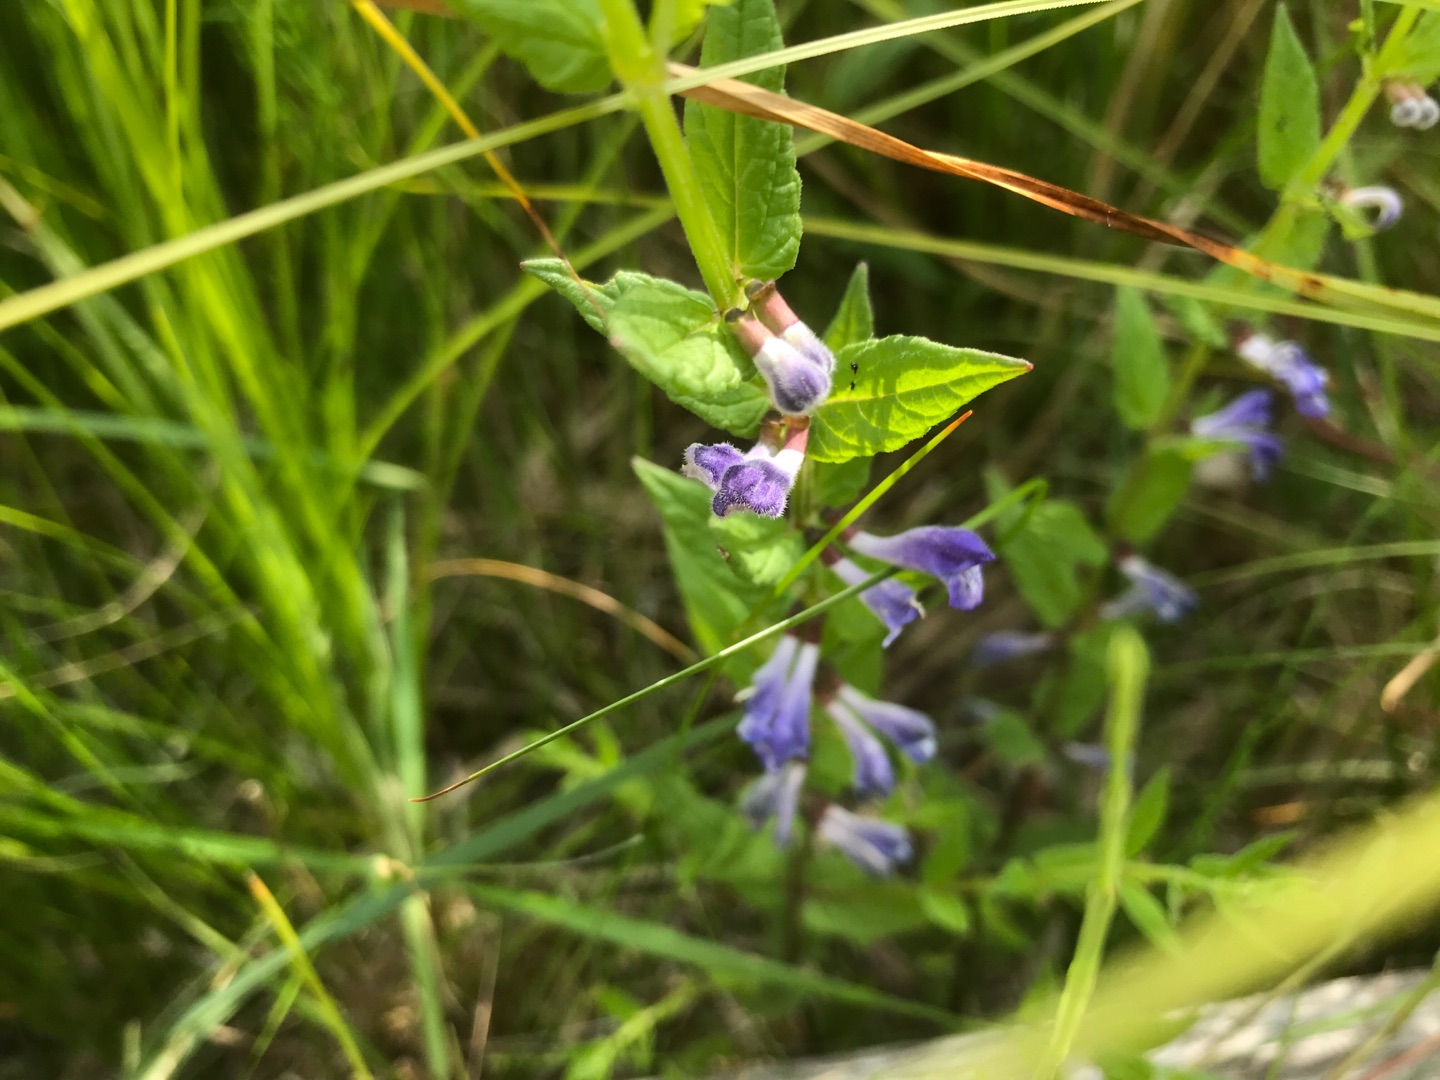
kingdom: Plantae
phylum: Tracheophyta
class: Magnoliopsida
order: Lamiales
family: Lamiaceae
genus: Scutellaria
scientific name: Scutellaria galericulata
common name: Almindelig skjolddrager
